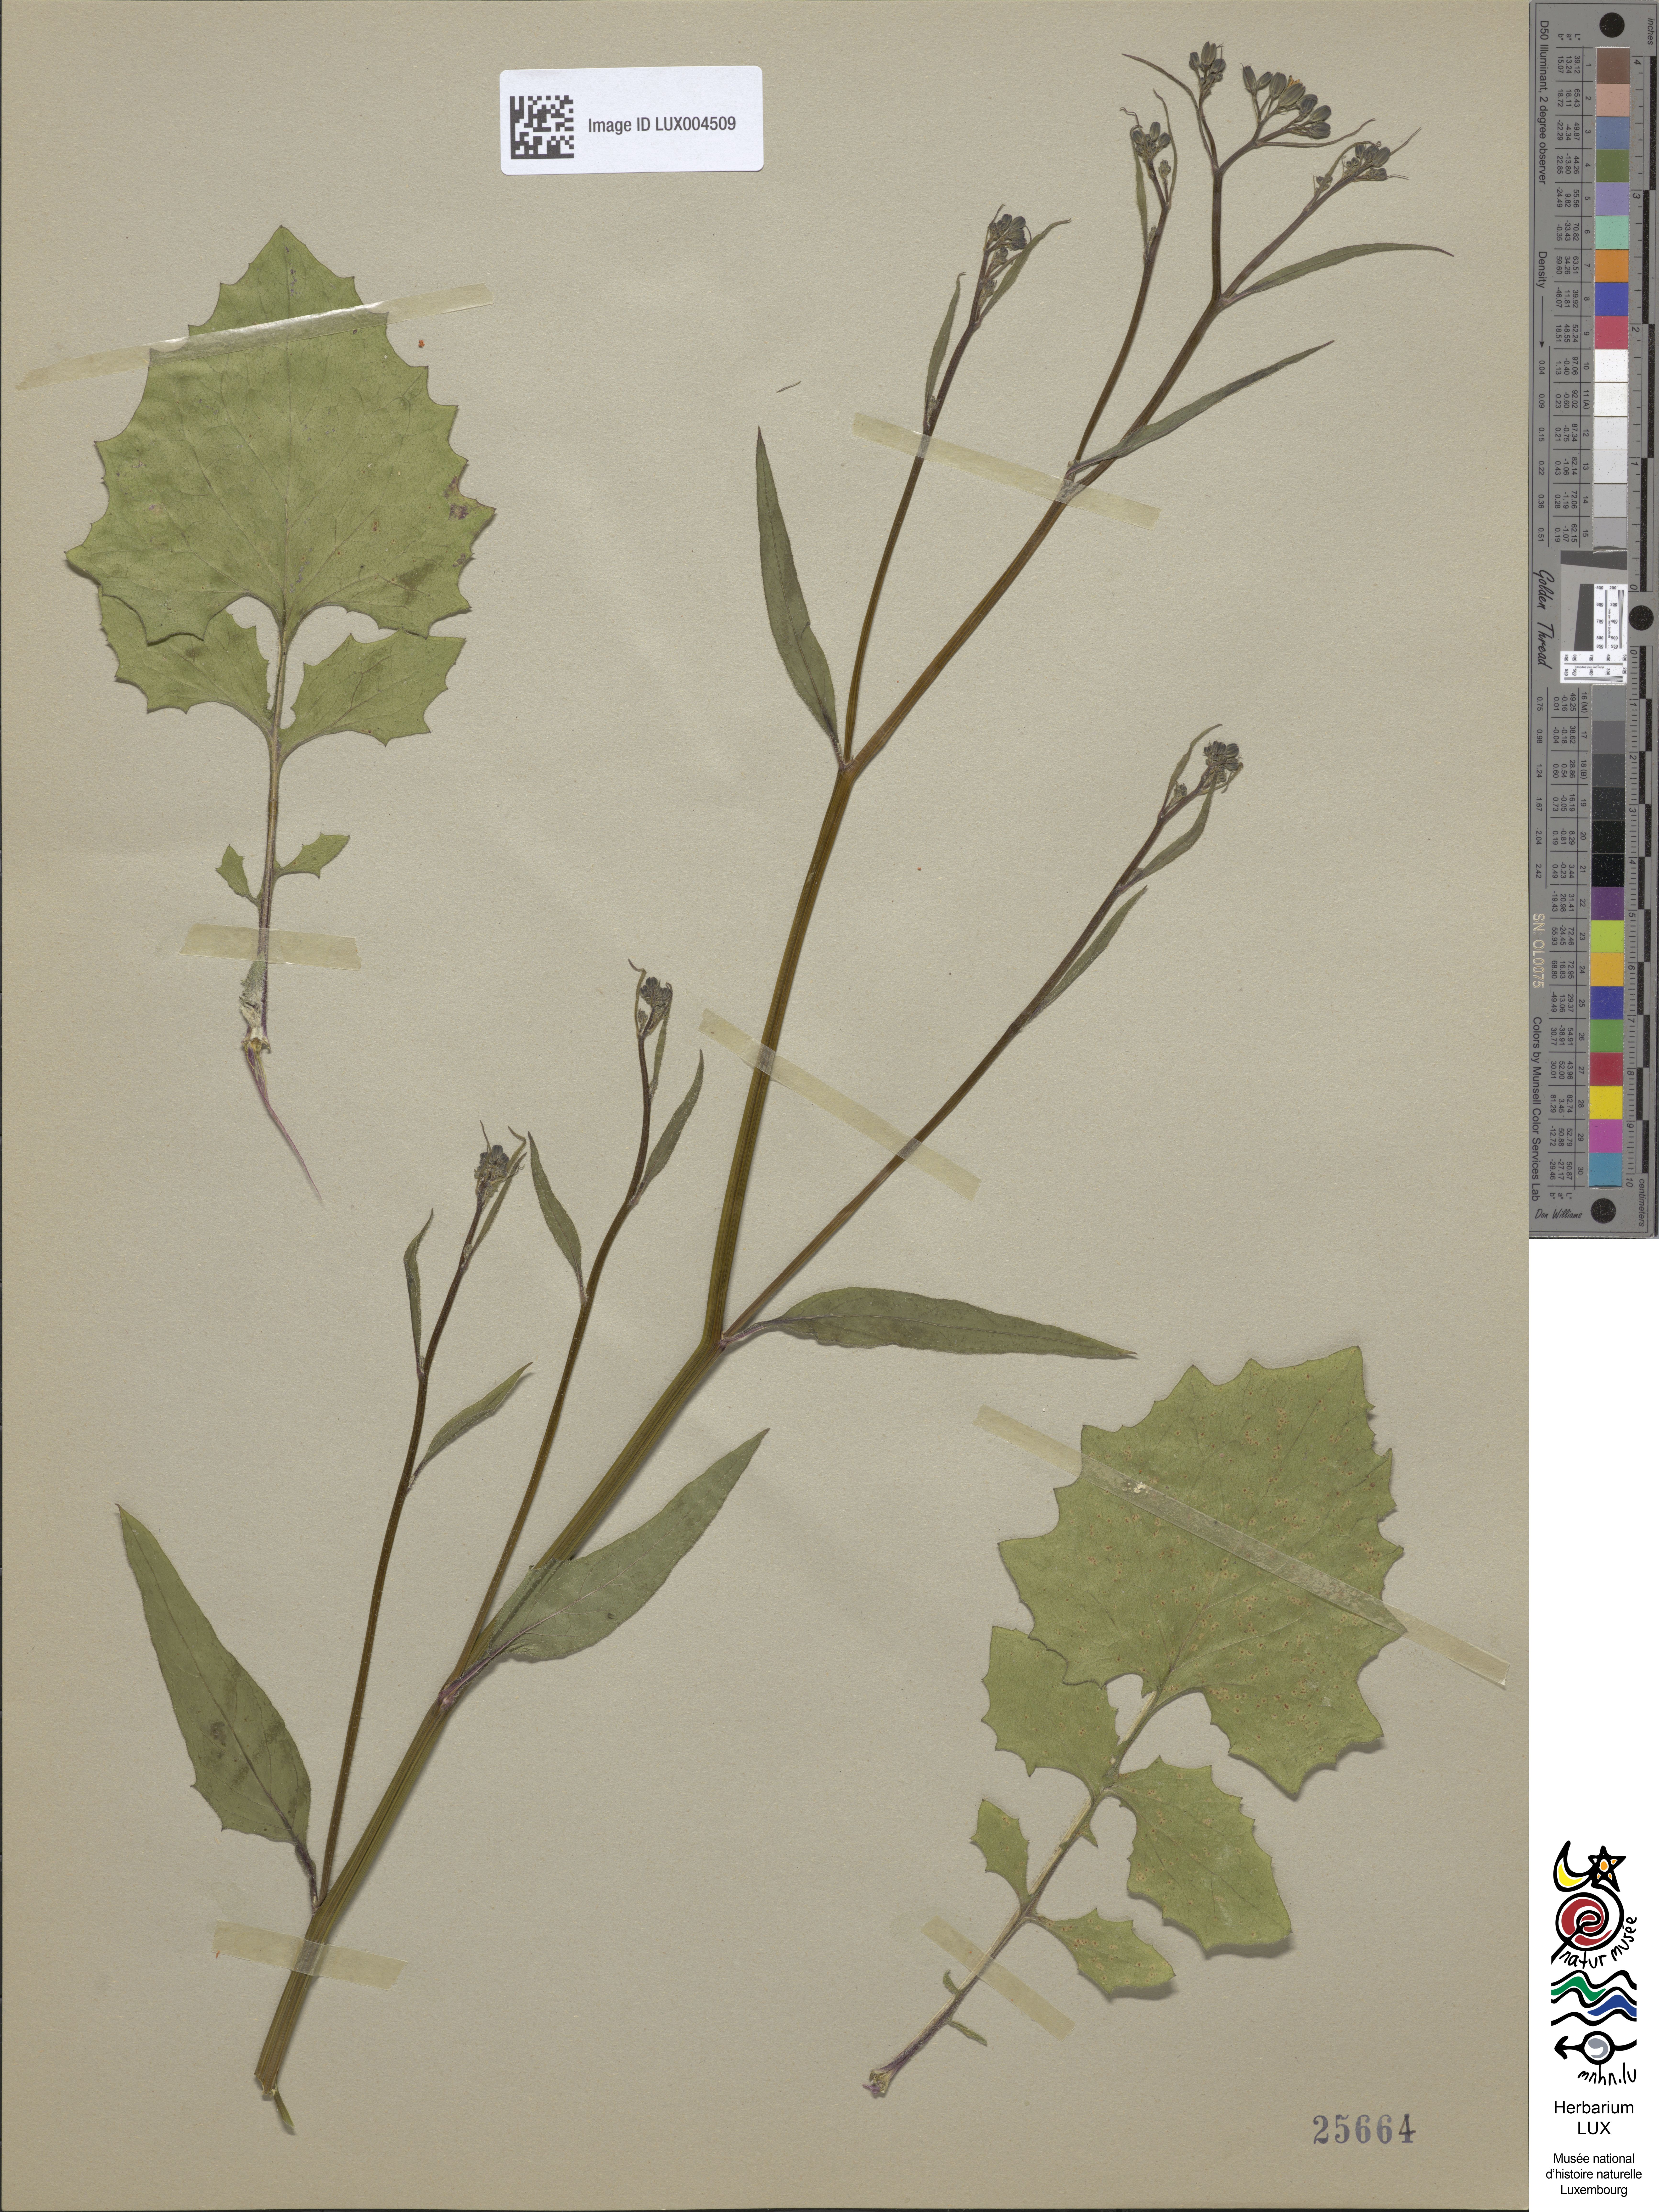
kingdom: Plantae
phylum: Tracheophyta
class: Magnoliopsida
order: Asterales
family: Asteraceae
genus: Lapsana
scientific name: Lapsana communis
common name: Nipplewort
